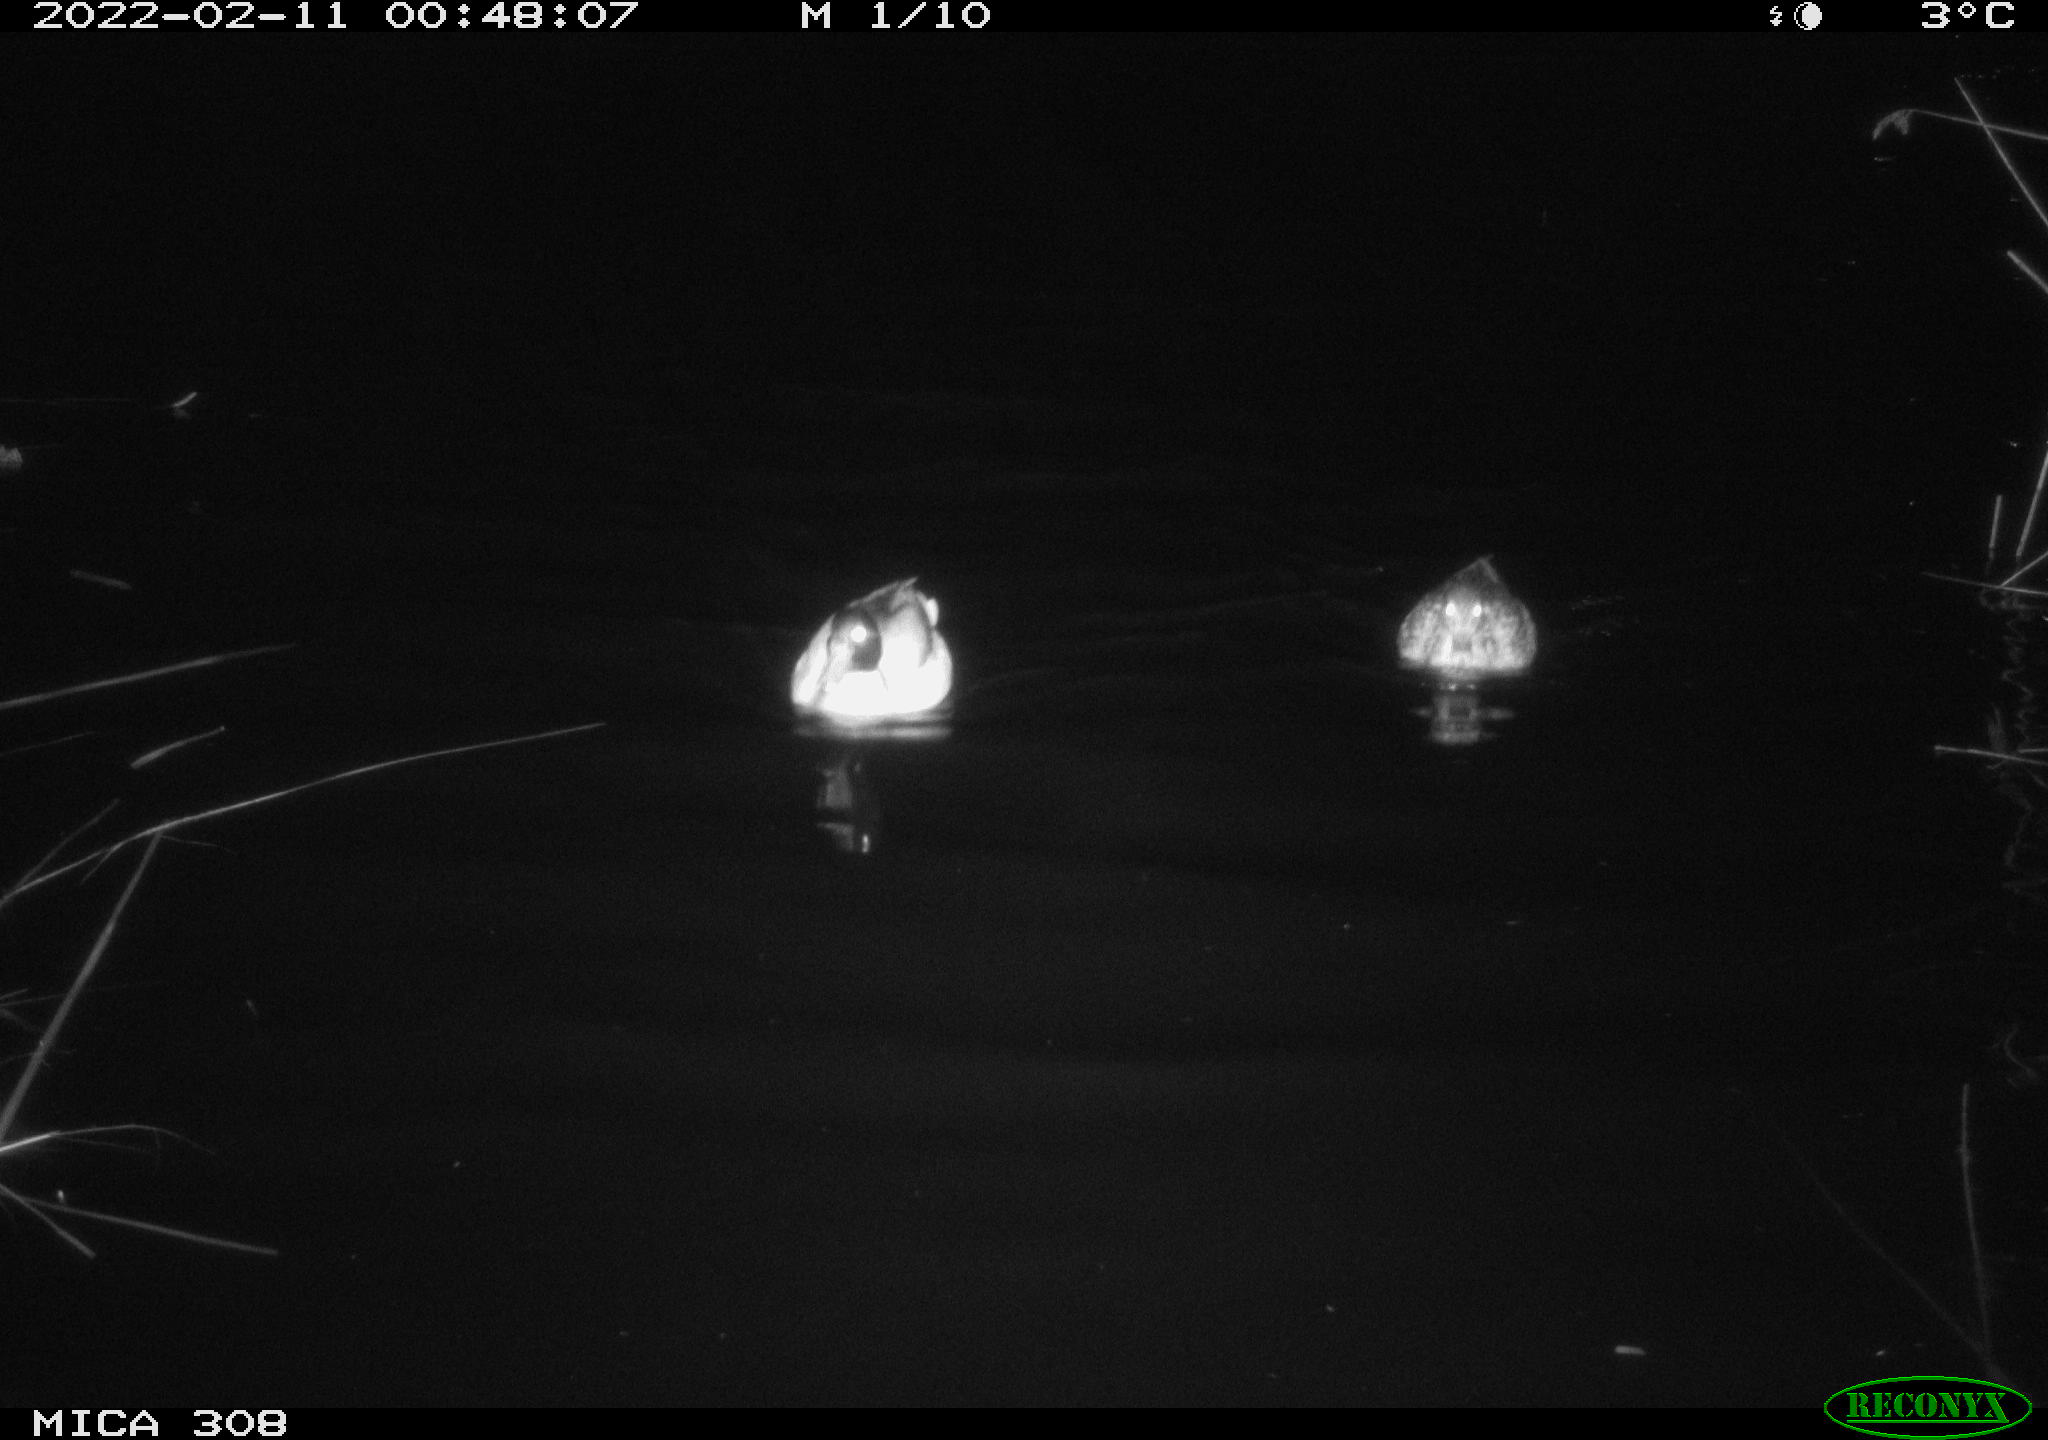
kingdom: Animalia
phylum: Chordata
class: Aves
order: Anseriformes
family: Anatidae
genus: Anas
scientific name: Anas platyrhynchos
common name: Mallard
